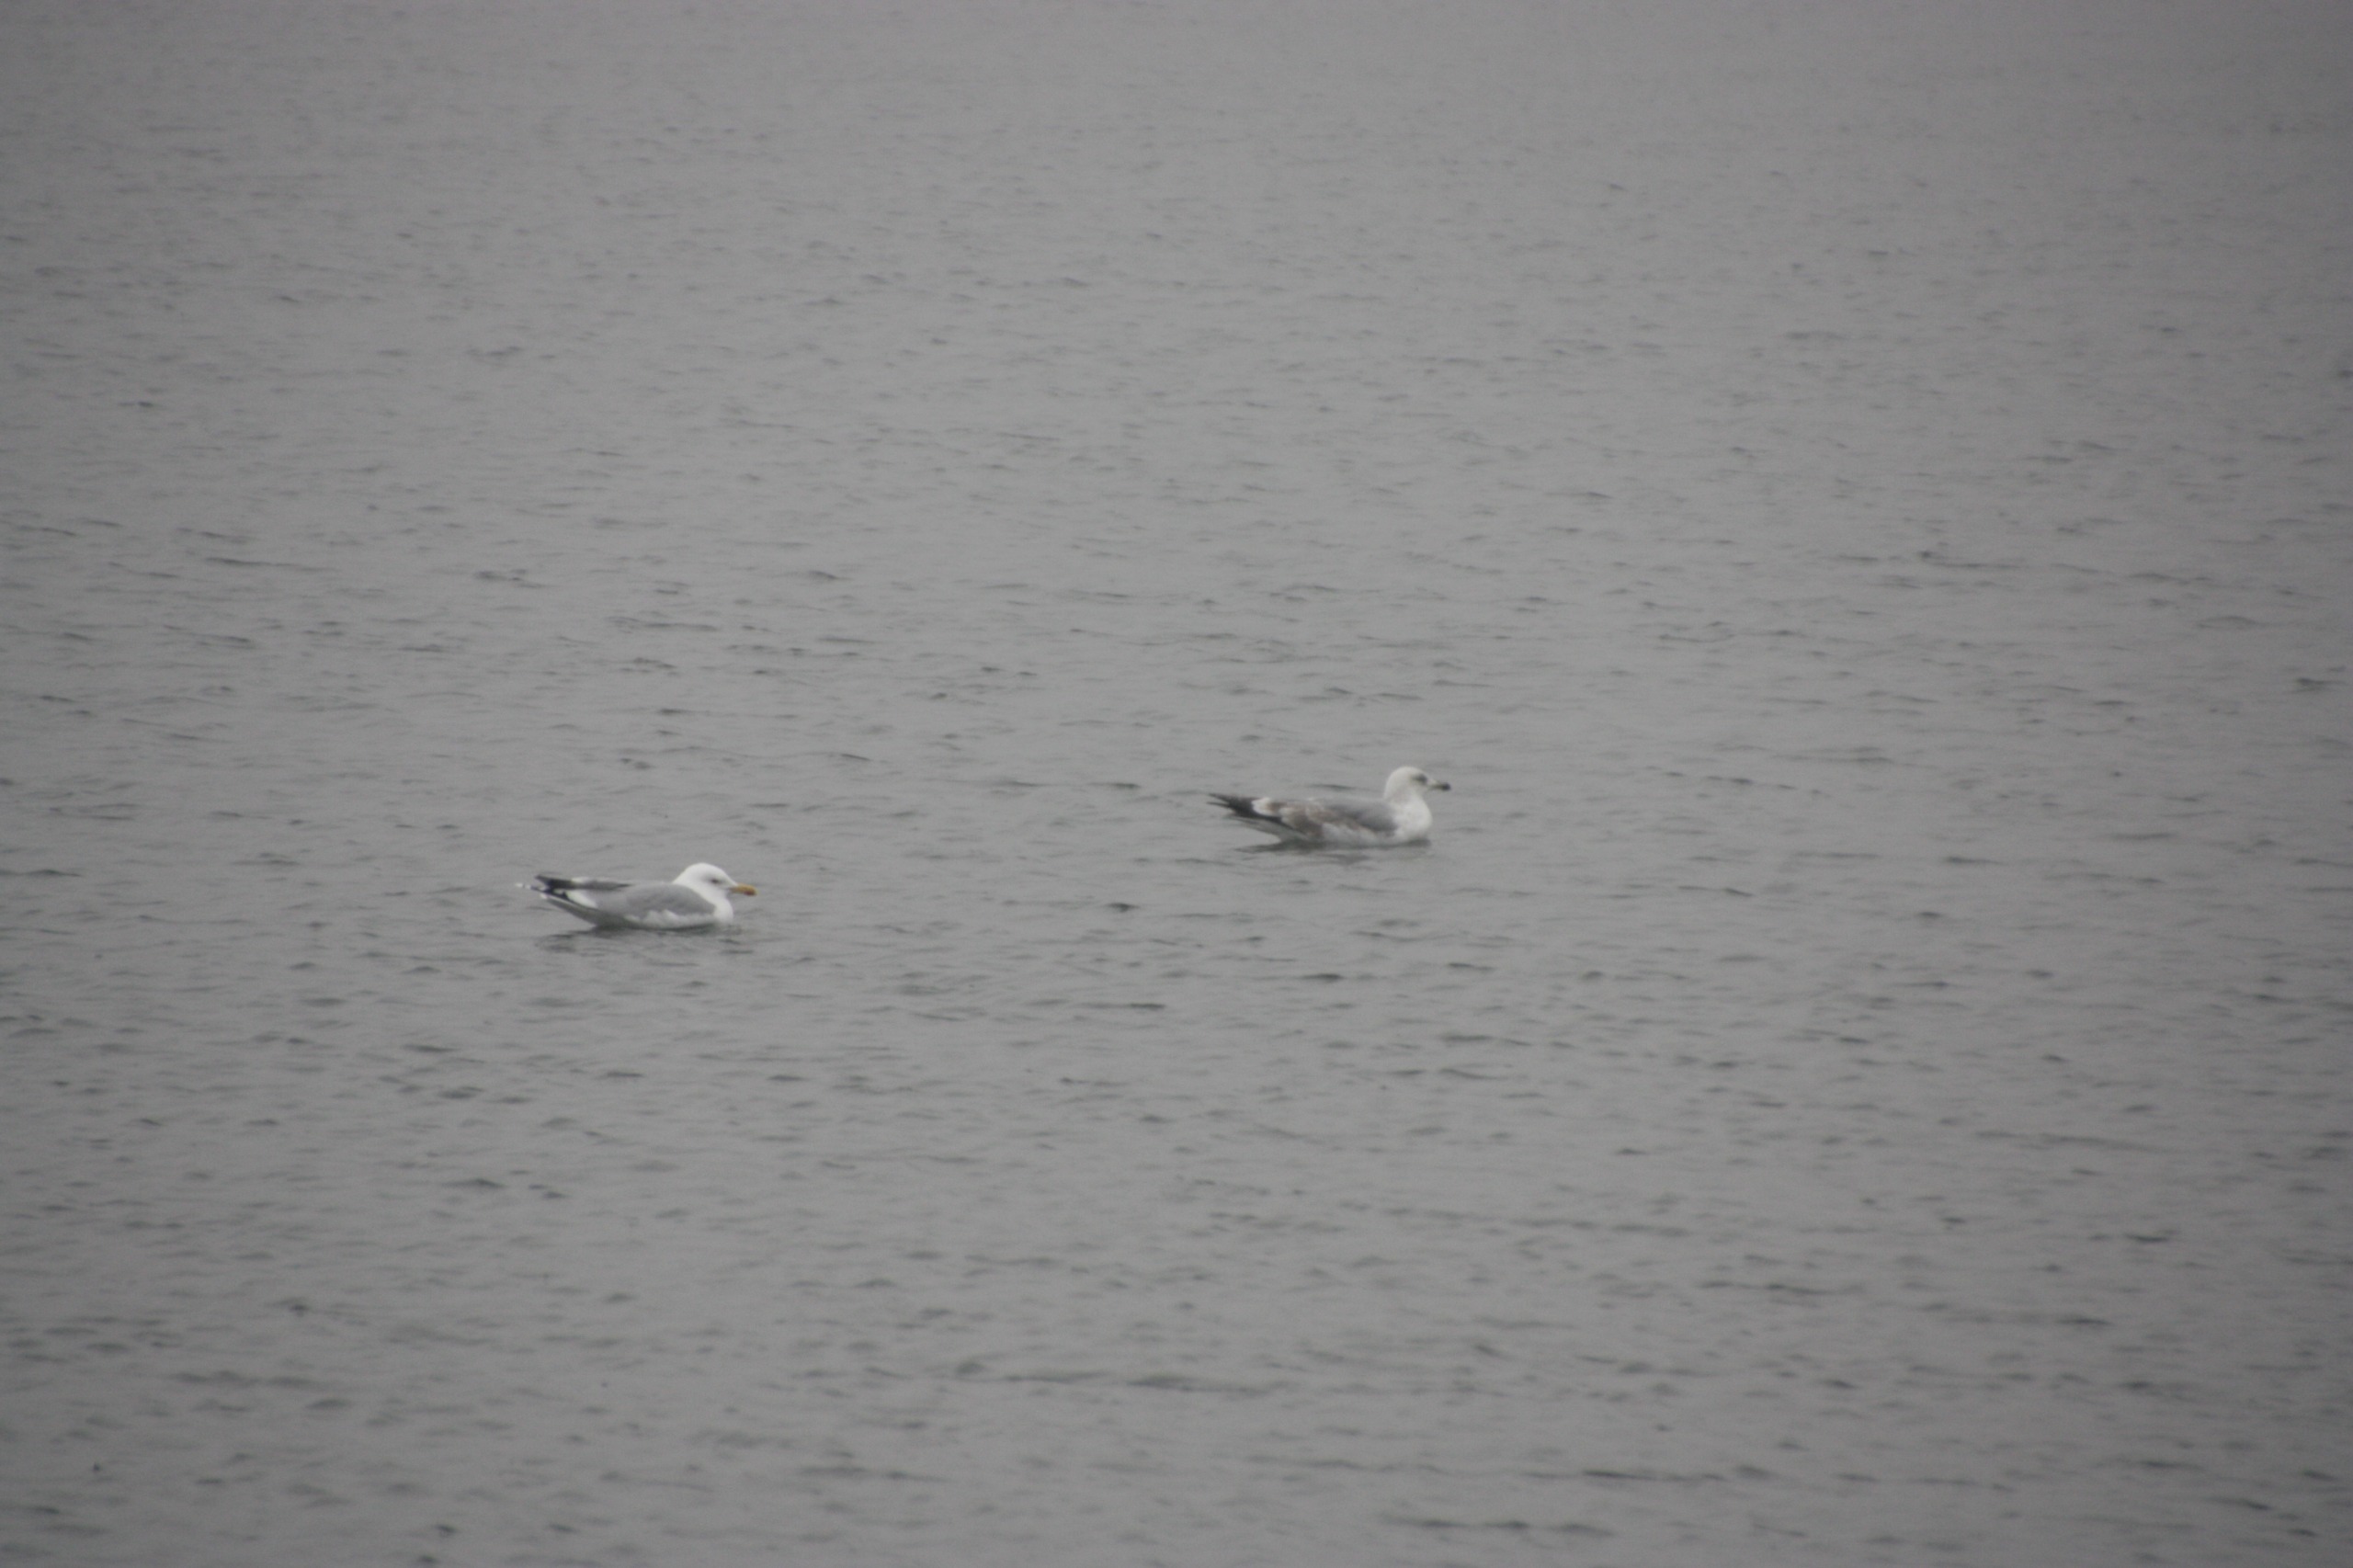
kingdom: Animalia
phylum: Chordata
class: Aves
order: Charadriiformes
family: Laridae
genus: Larus
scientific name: Larus argentatus
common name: Sølvmåge
